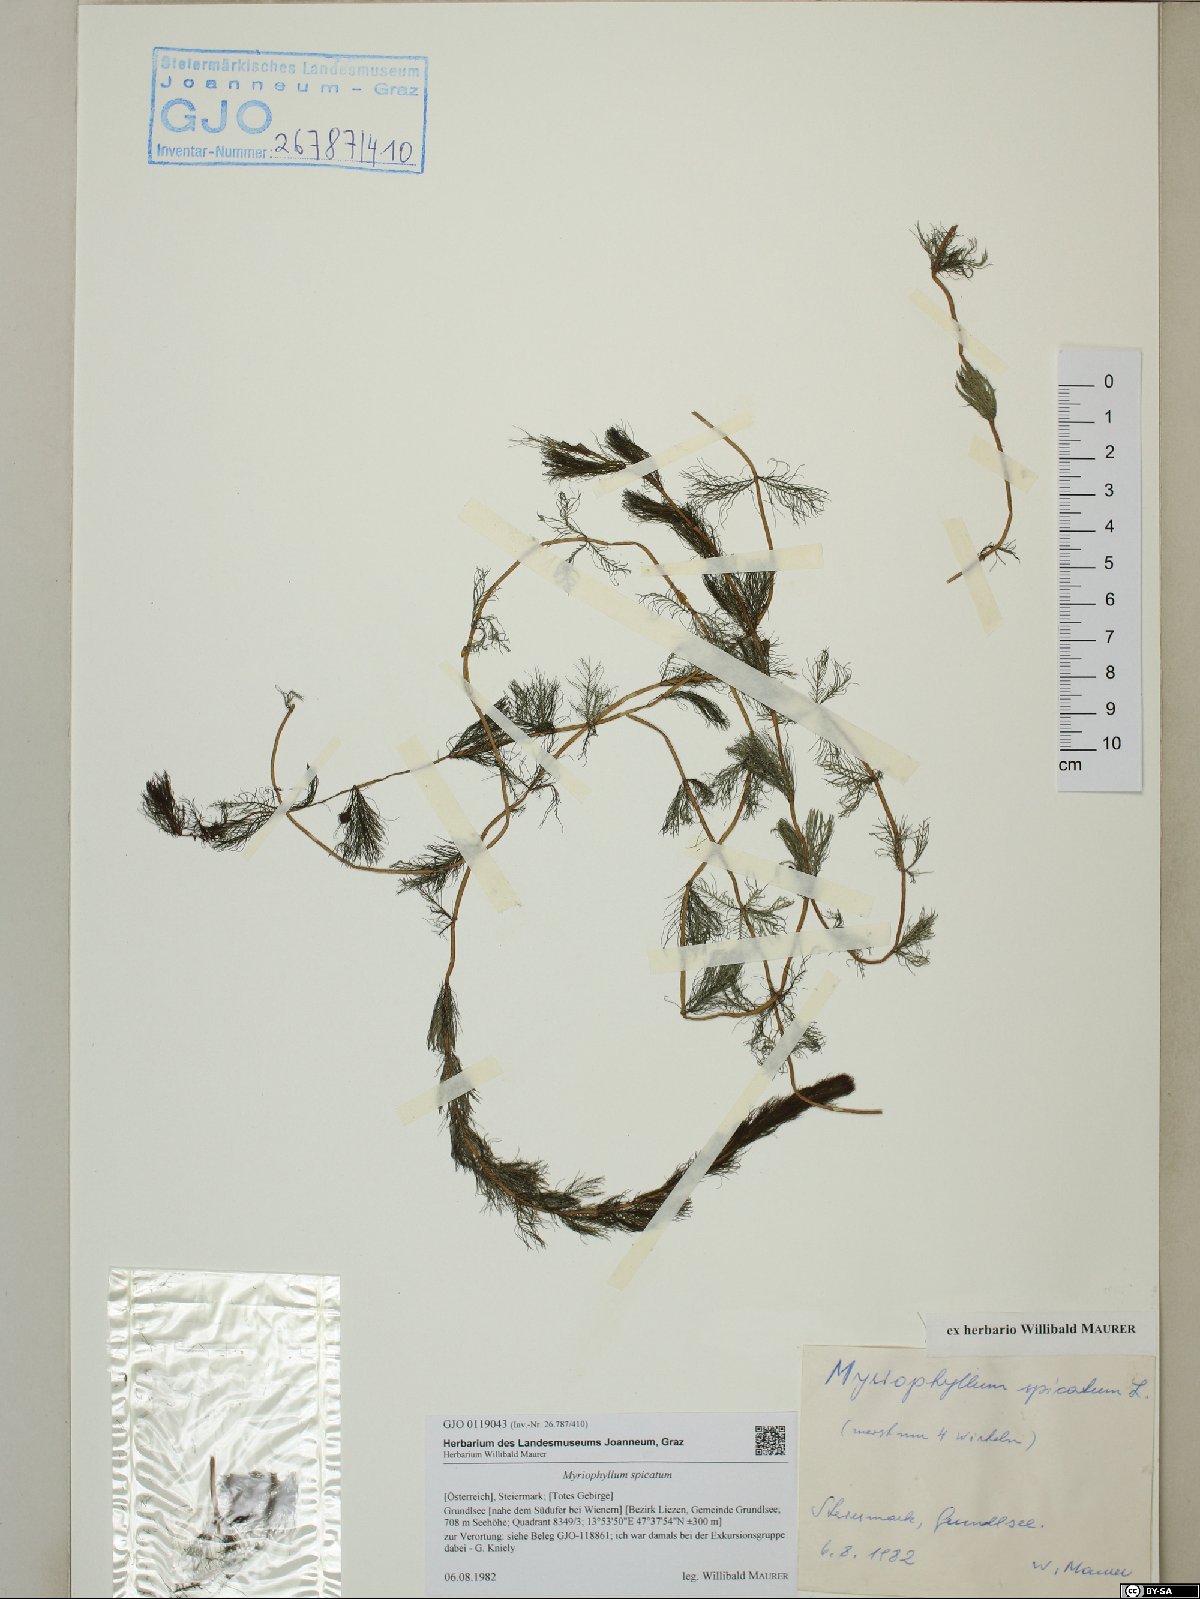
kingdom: Plantae
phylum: Tracheophyta
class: Magnoliopsida
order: Saxifragales
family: Haloragaceae
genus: Myriophyllum
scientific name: Myriophyllum spicatum
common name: Spiked water-milfoil
